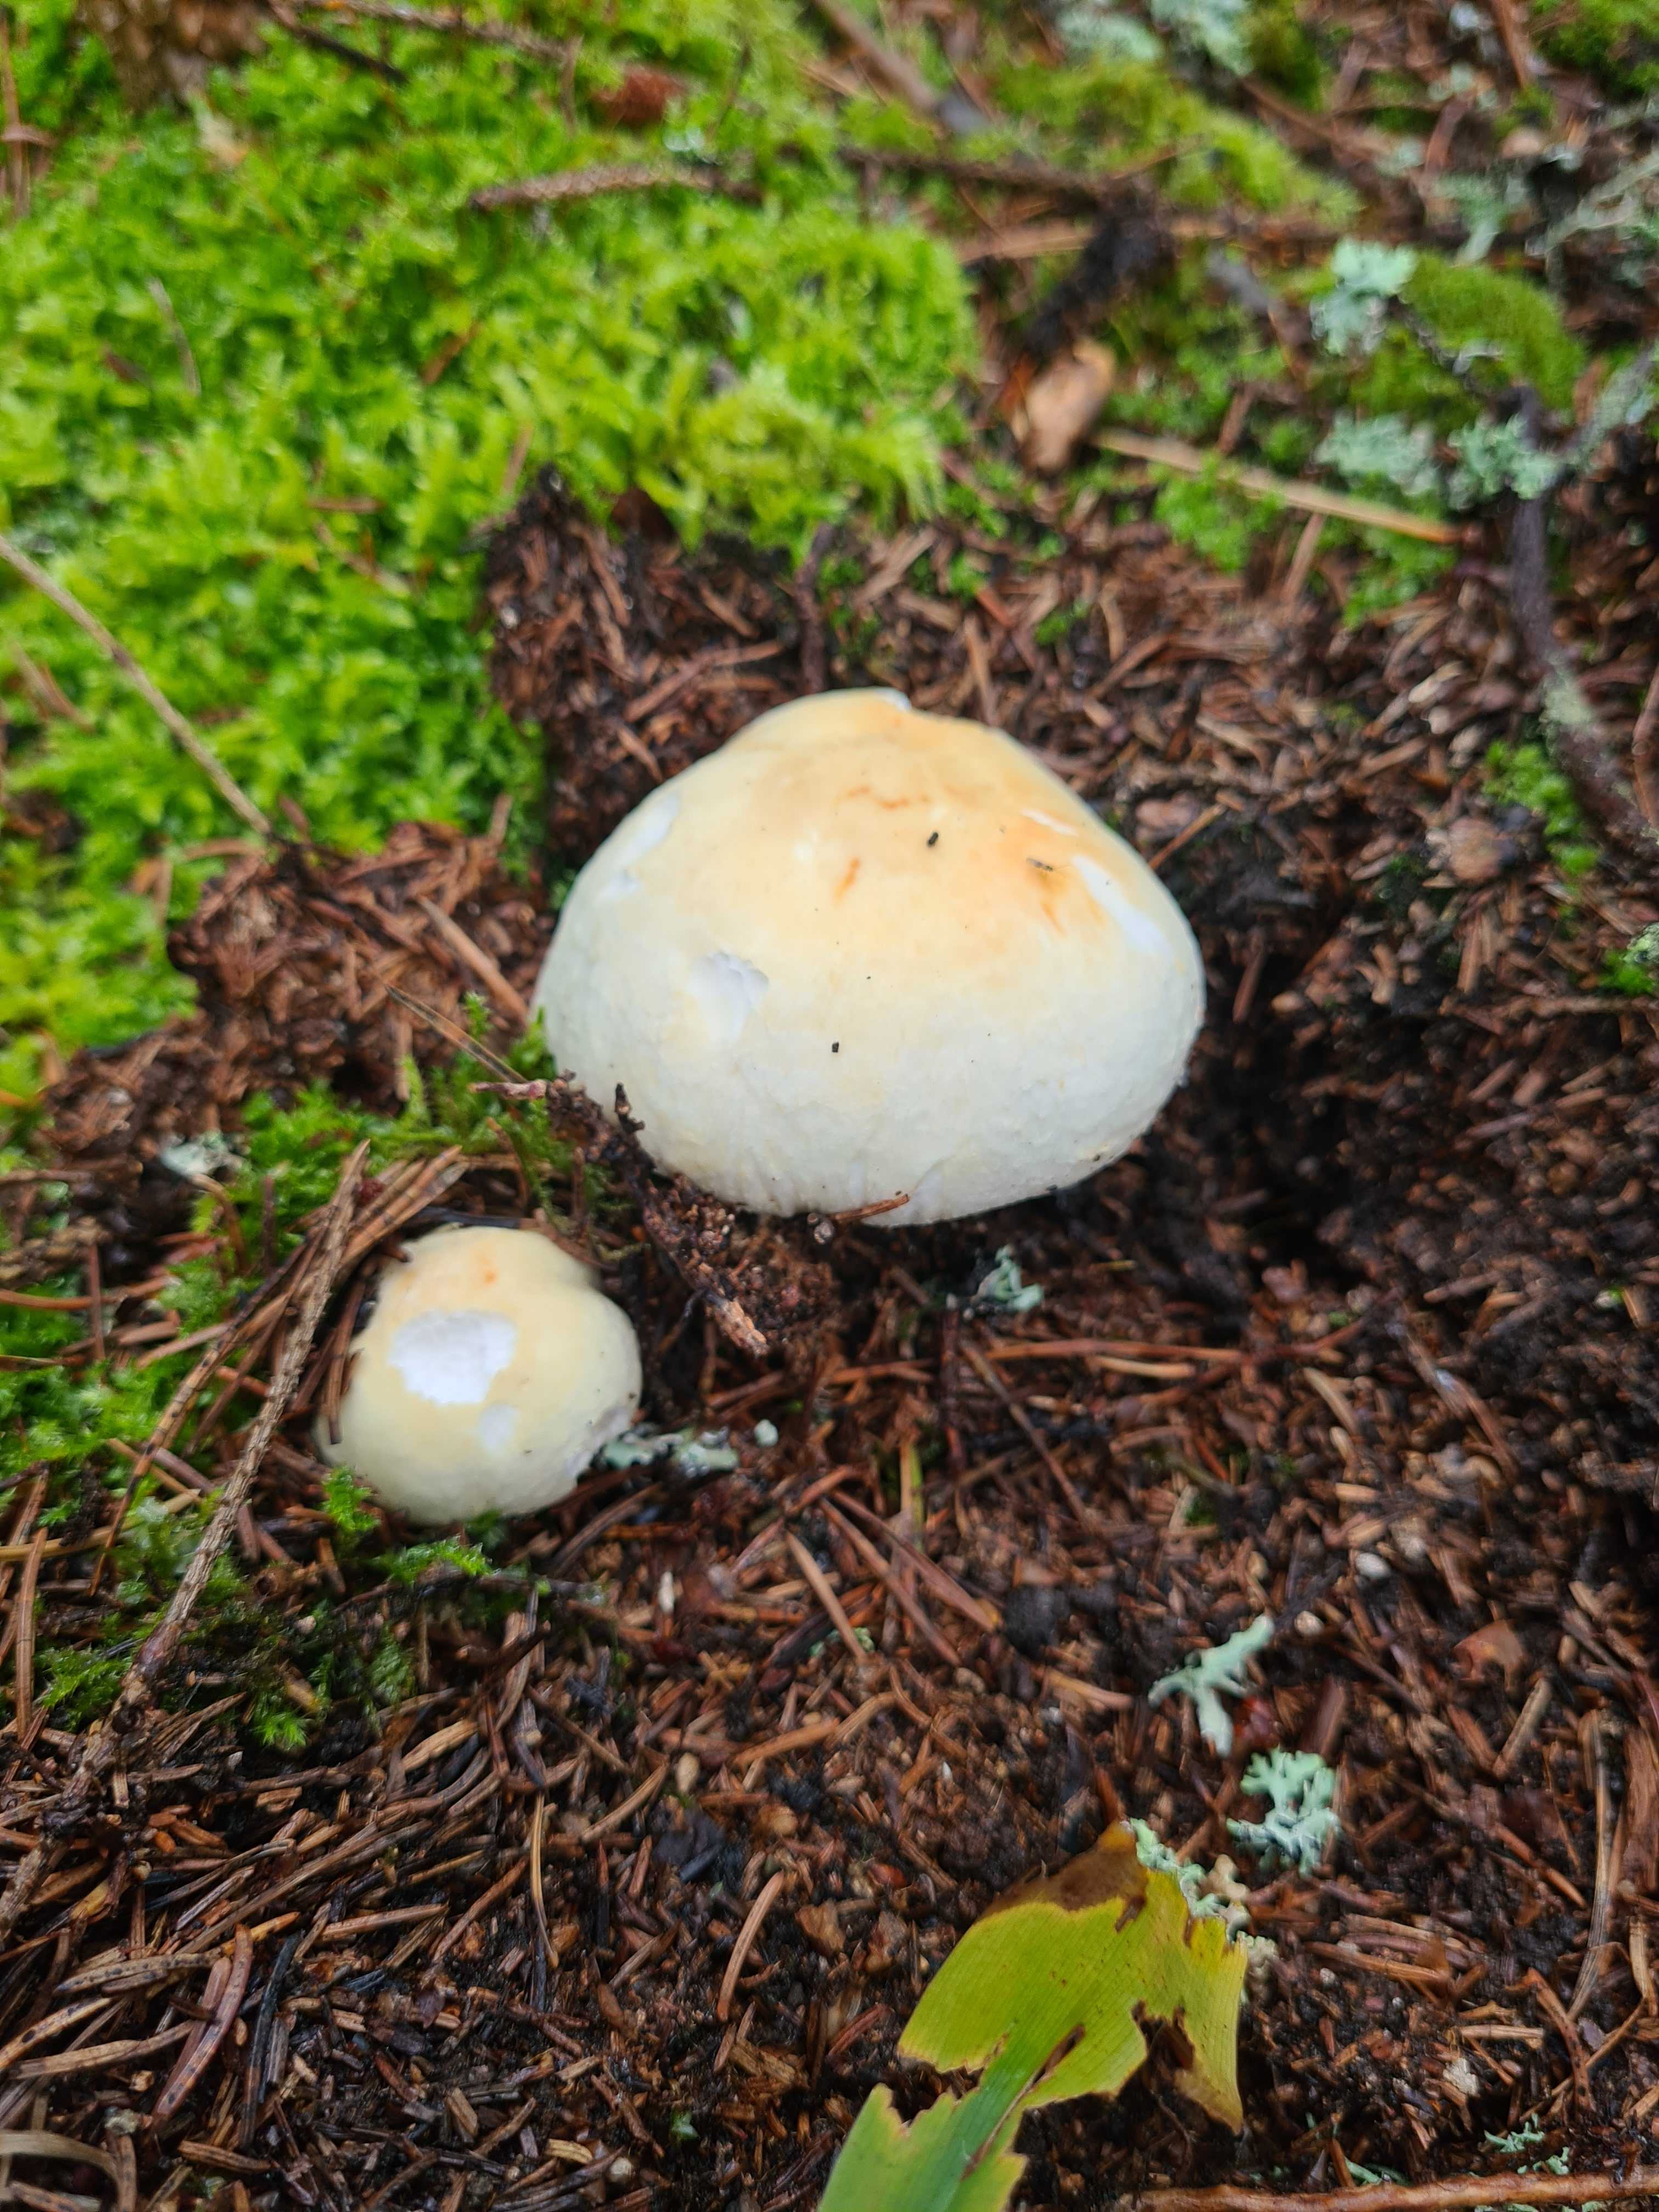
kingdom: Fungi
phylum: Basidiomycota
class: Agaricomycetes
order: Agaricales
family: Agaricaceae
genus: Agaricus
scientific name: Agaricus sylvicola
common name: gulhvid champignon
